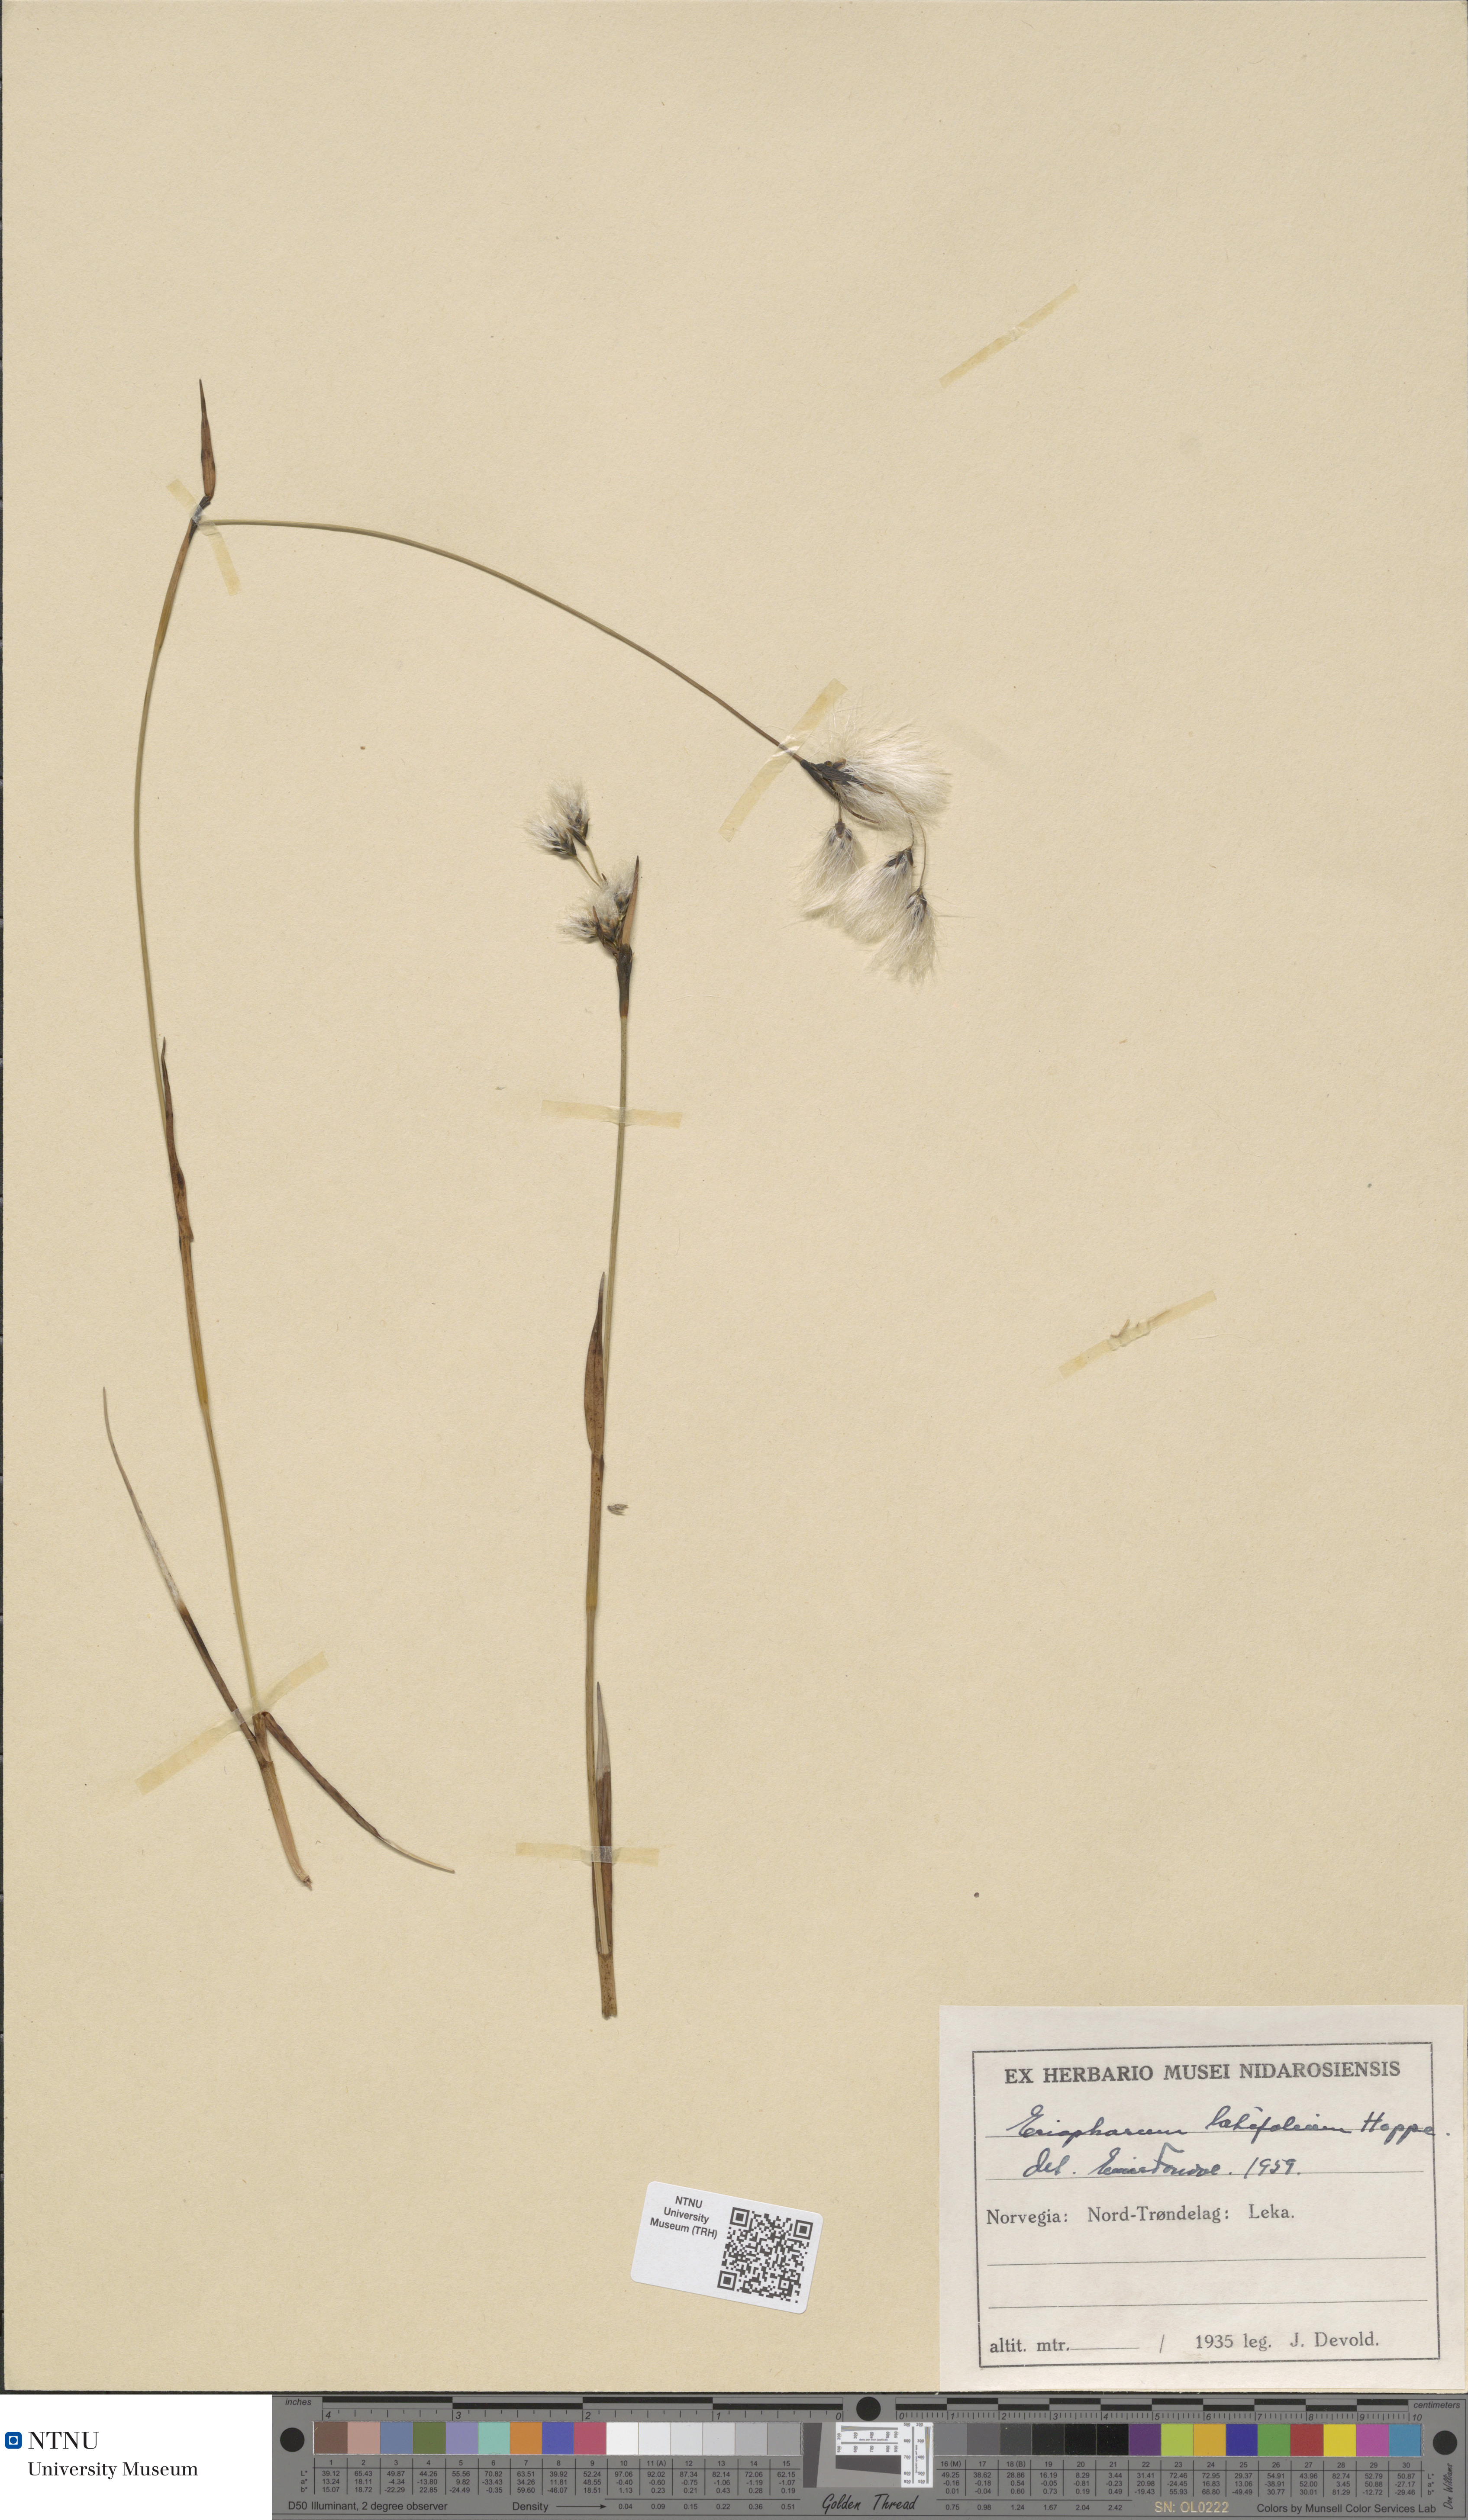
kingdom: Plantae
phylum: Tracheophyta
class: Liliopsida
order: Poales
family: Cyperaceae
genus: Eriophorum
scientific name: Eriophorum latifolium
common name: Broad-leaved cottongrass
